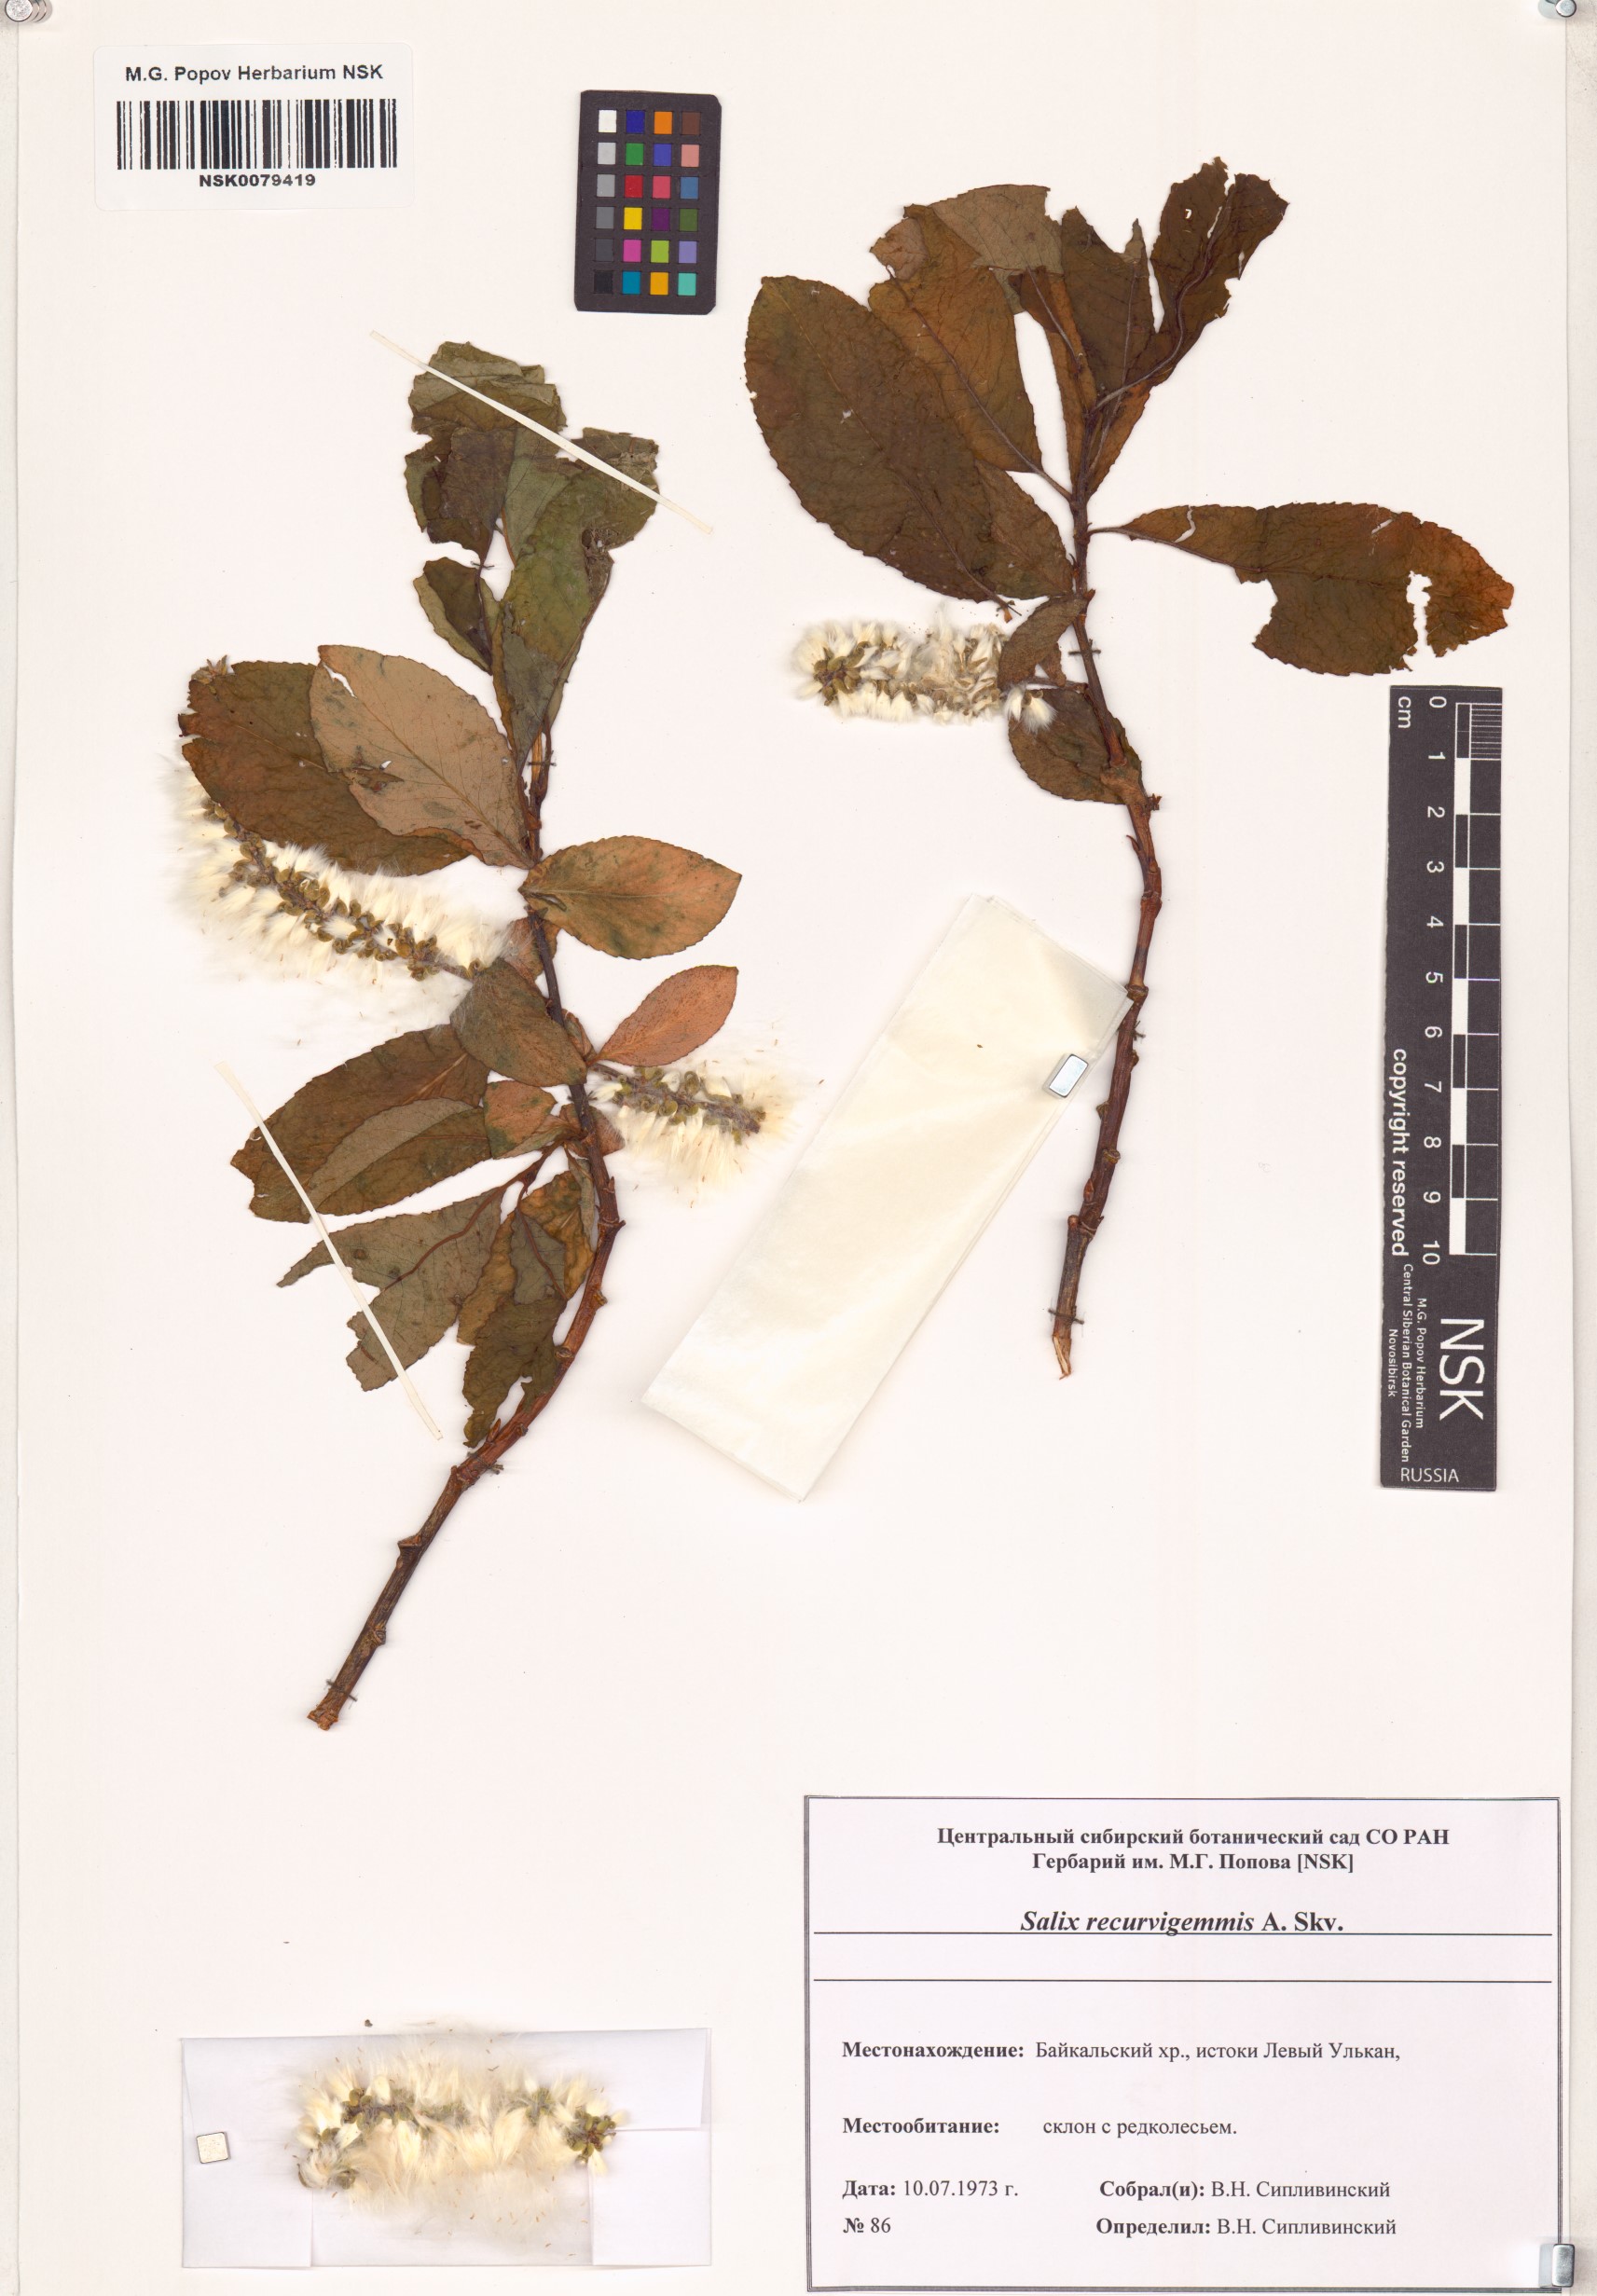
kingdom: Plantae
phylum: Tracheophyta
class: Magnoliopsida
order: Malpighiales
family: Salicaceae
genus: Salix
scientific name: Salix recurvigemmata
